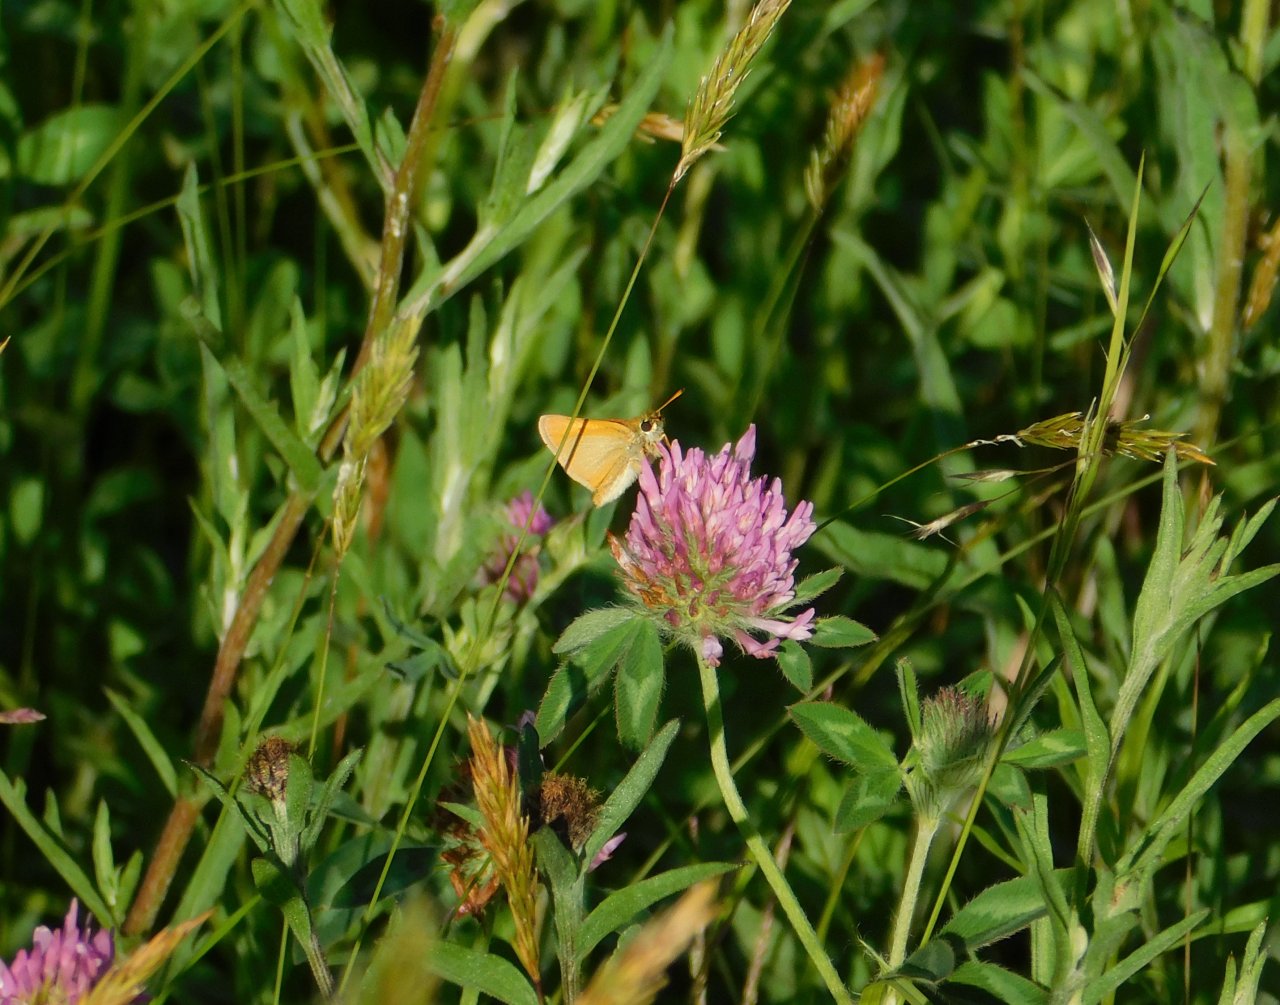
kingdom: Animalia
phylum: Arthropoda
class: Insecta
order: Lepidoptera
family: Hesperiidae
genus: Thymelicus
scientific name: Thymelicus lineola
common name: European Skipper
